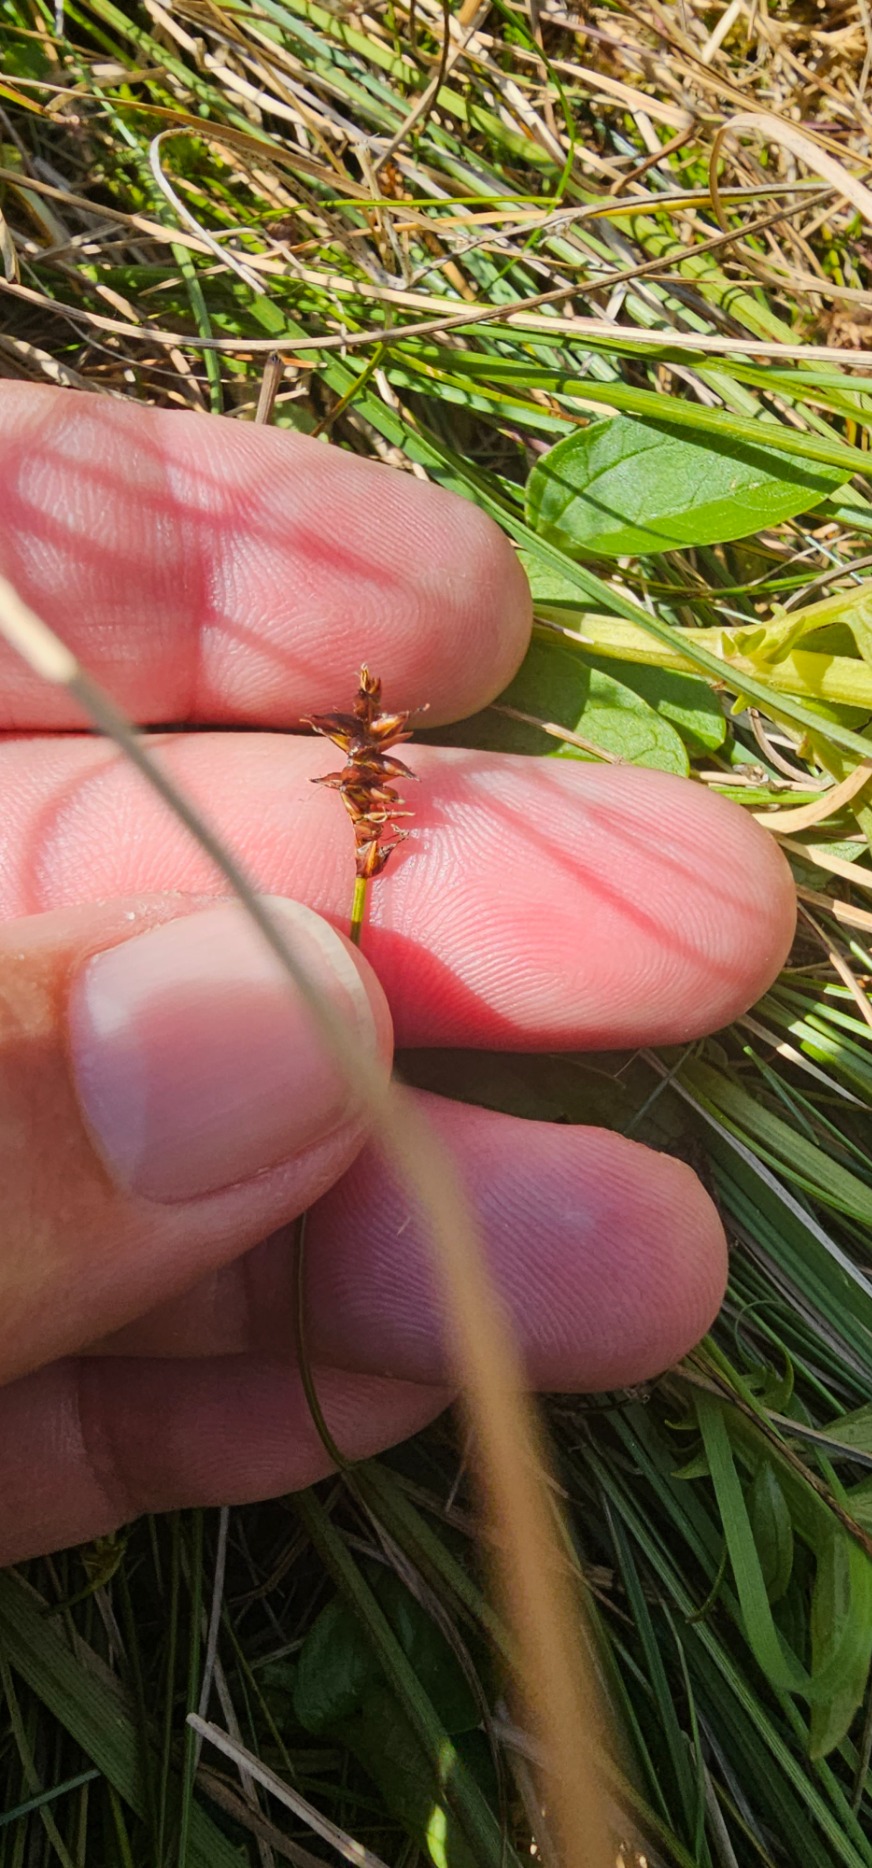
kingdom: Plantae
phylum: Tracheophyta
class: Liliopsida
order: Poales
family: Cyperaceae
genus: Carex
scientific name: Carex dioica
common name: Tvebo star
